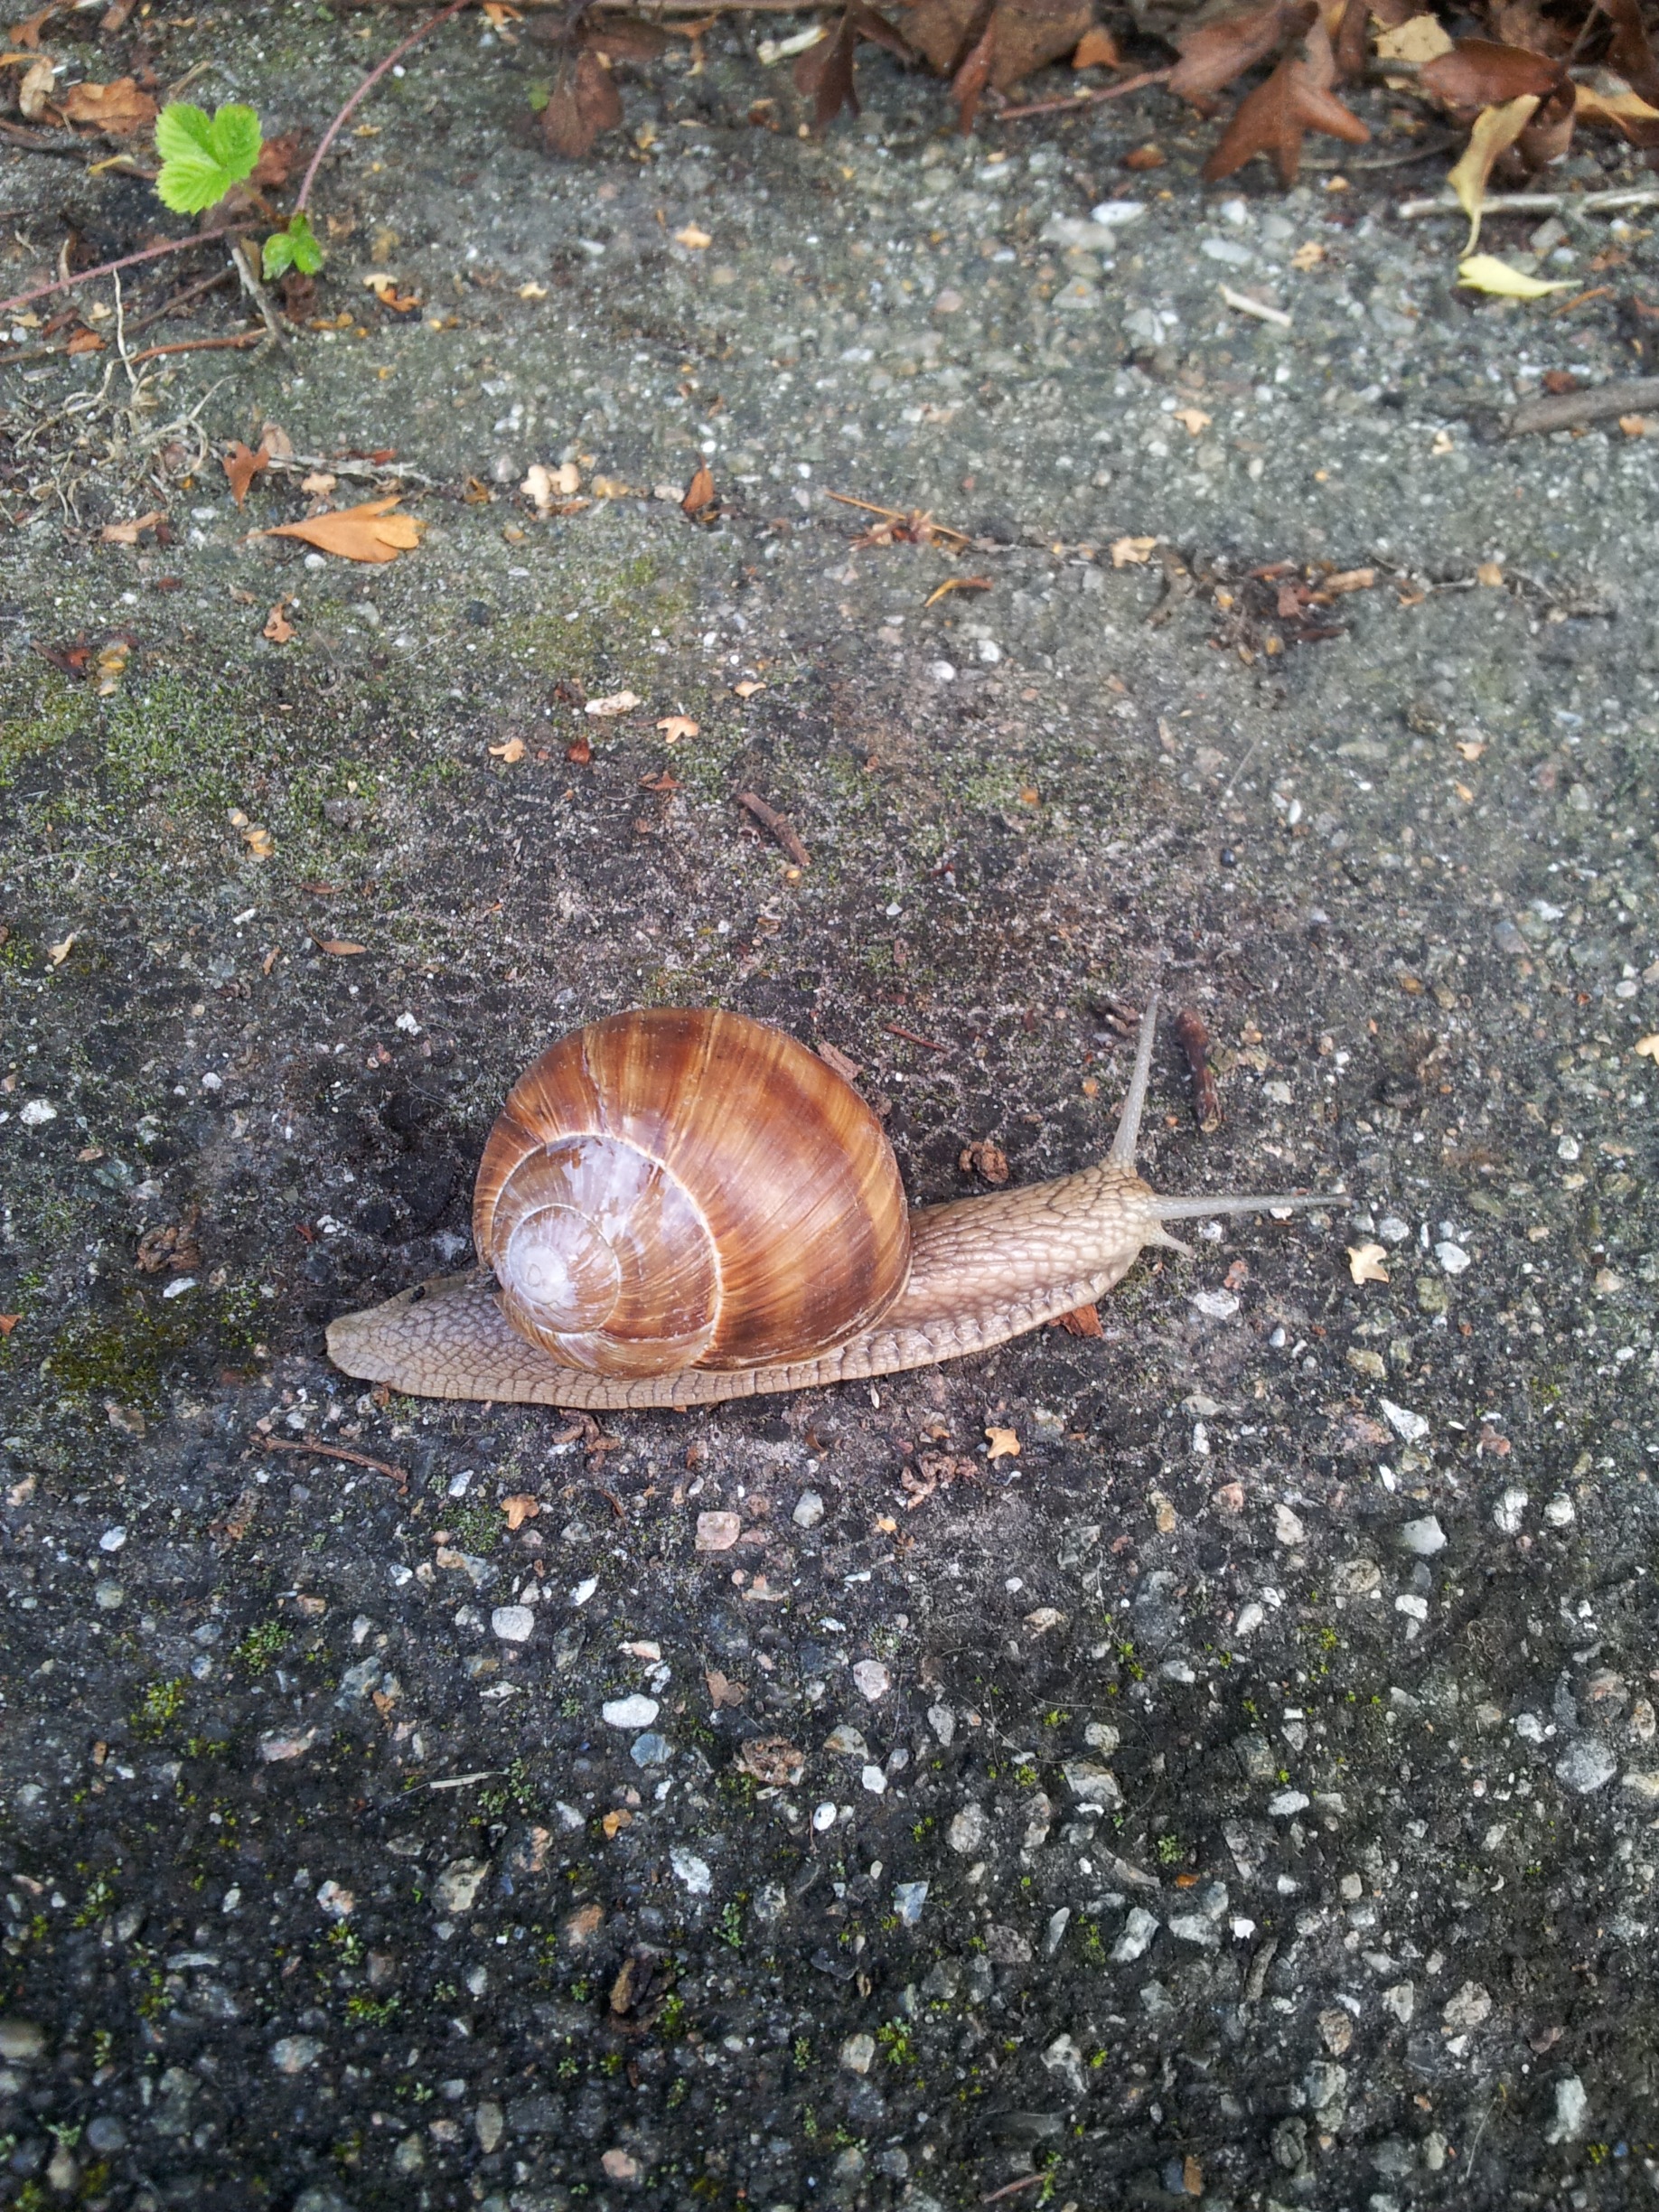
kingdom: Animalia
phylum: Mollusca
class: Gastropoda
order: Stylommatophora
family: Helicidae
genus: Helix
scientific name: Helix pomatia
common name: Vinbjergsnegl
